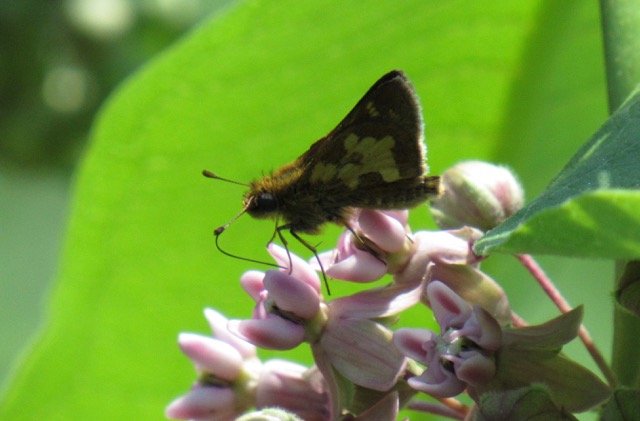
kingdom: Animalia
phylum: Arthropoda
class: Insecta
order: Lepidoptera
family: Hesperiidae
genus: Polites
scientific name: Polites coras
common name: Peck's Skipper
